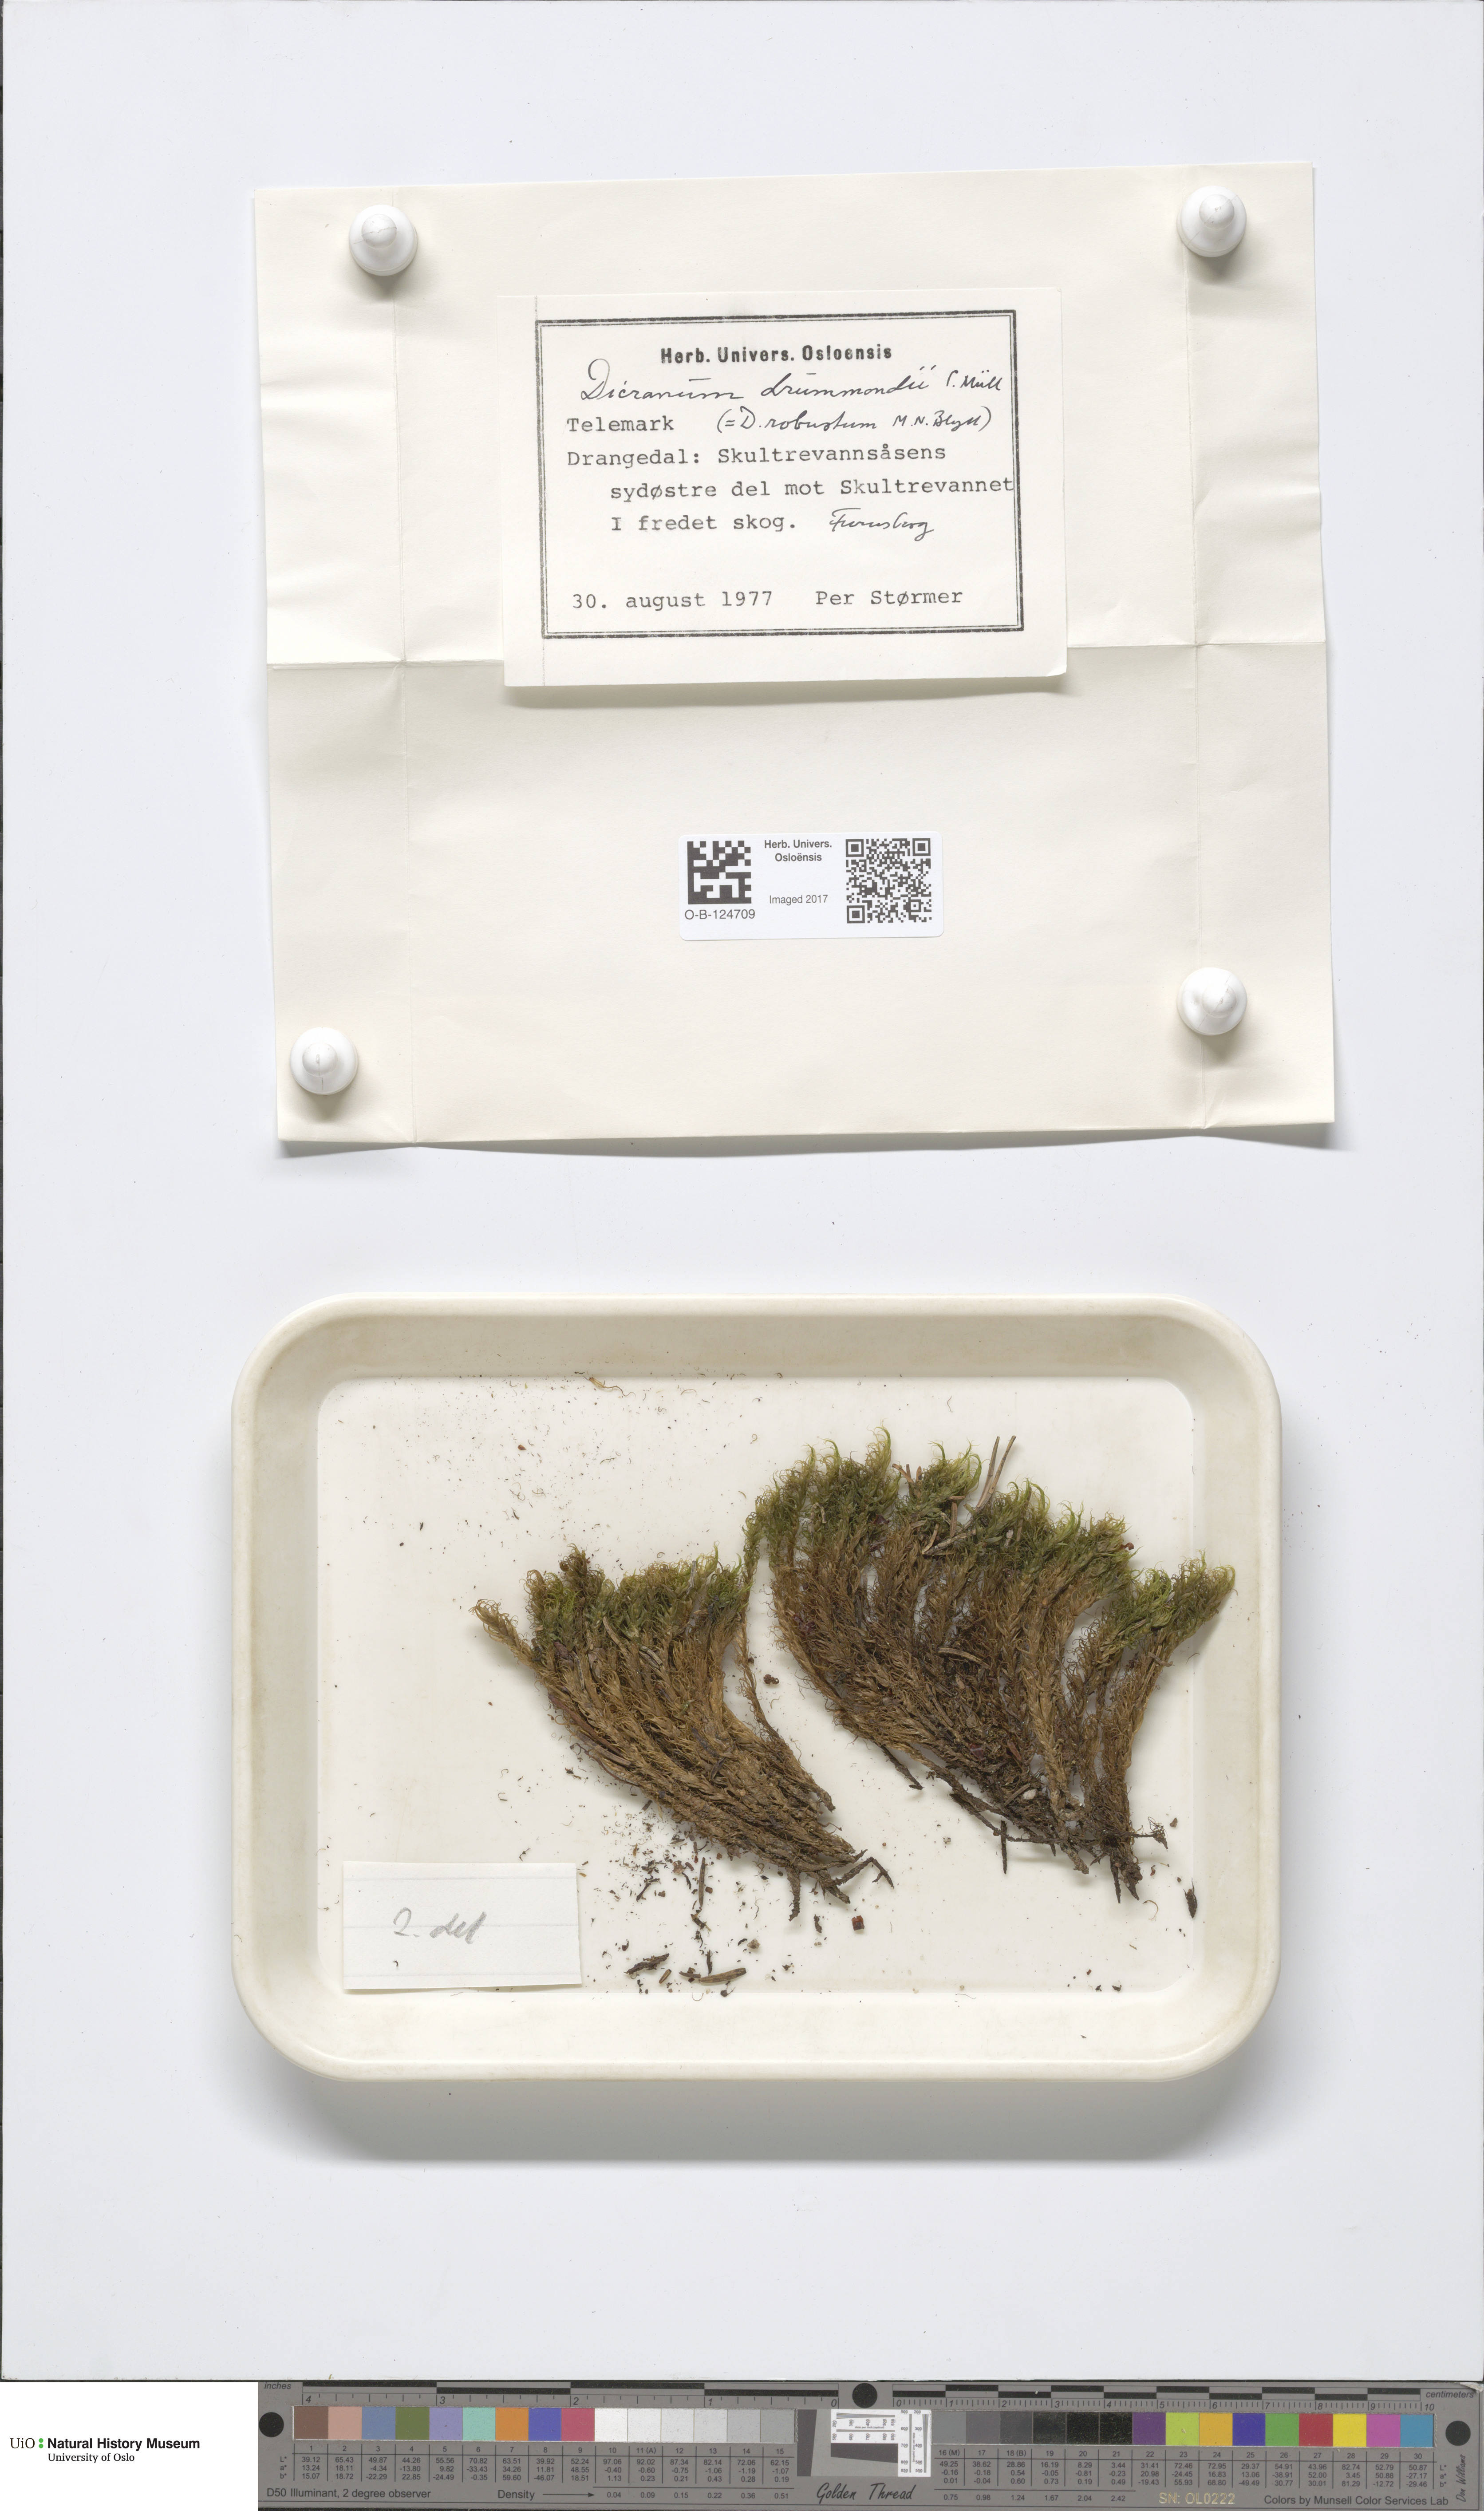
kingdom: Plantae
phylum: Bryophyta
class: Bryopsida
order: Dicranales
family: Dicranaceae
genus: Dicranum
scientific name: Dicranum drummondii
